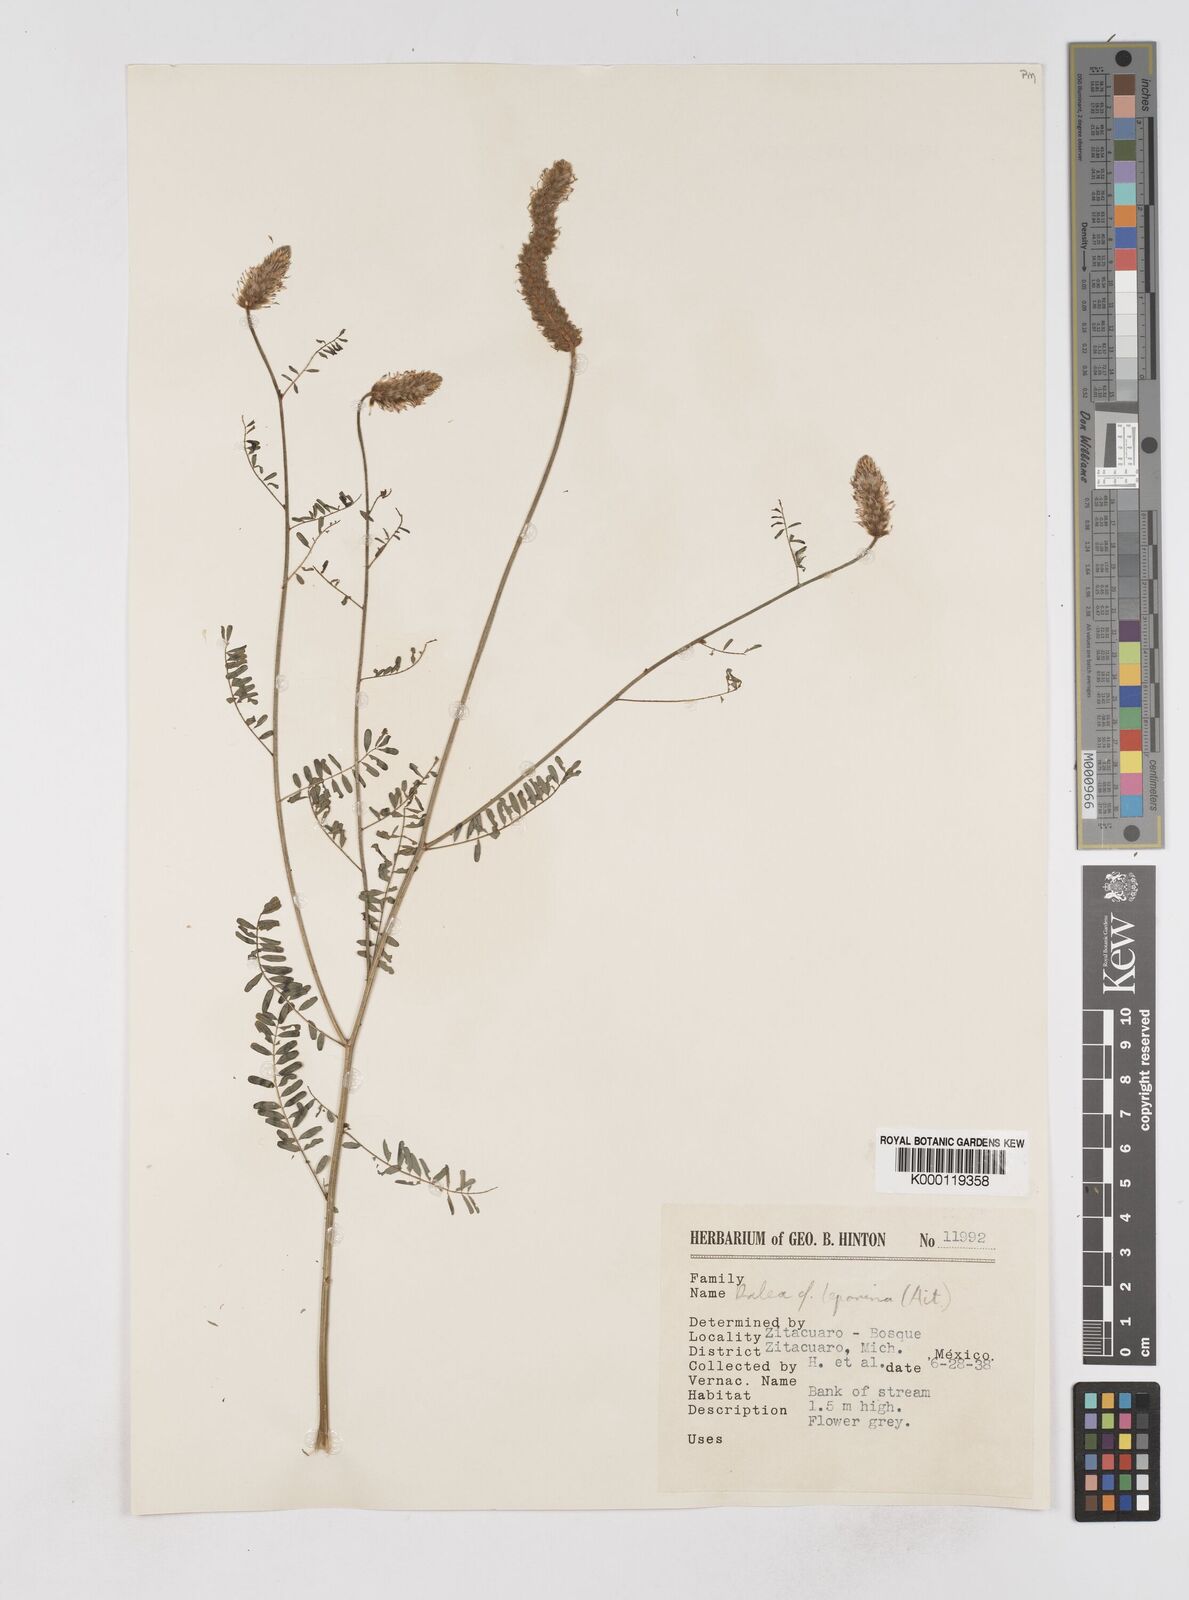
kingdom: Plantae
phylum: Tracheophyta
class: Magnoliopsida
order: Fabales
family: Fabaceae
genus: Dalea
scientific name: Dalea leporina
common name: Foxtail dalea
